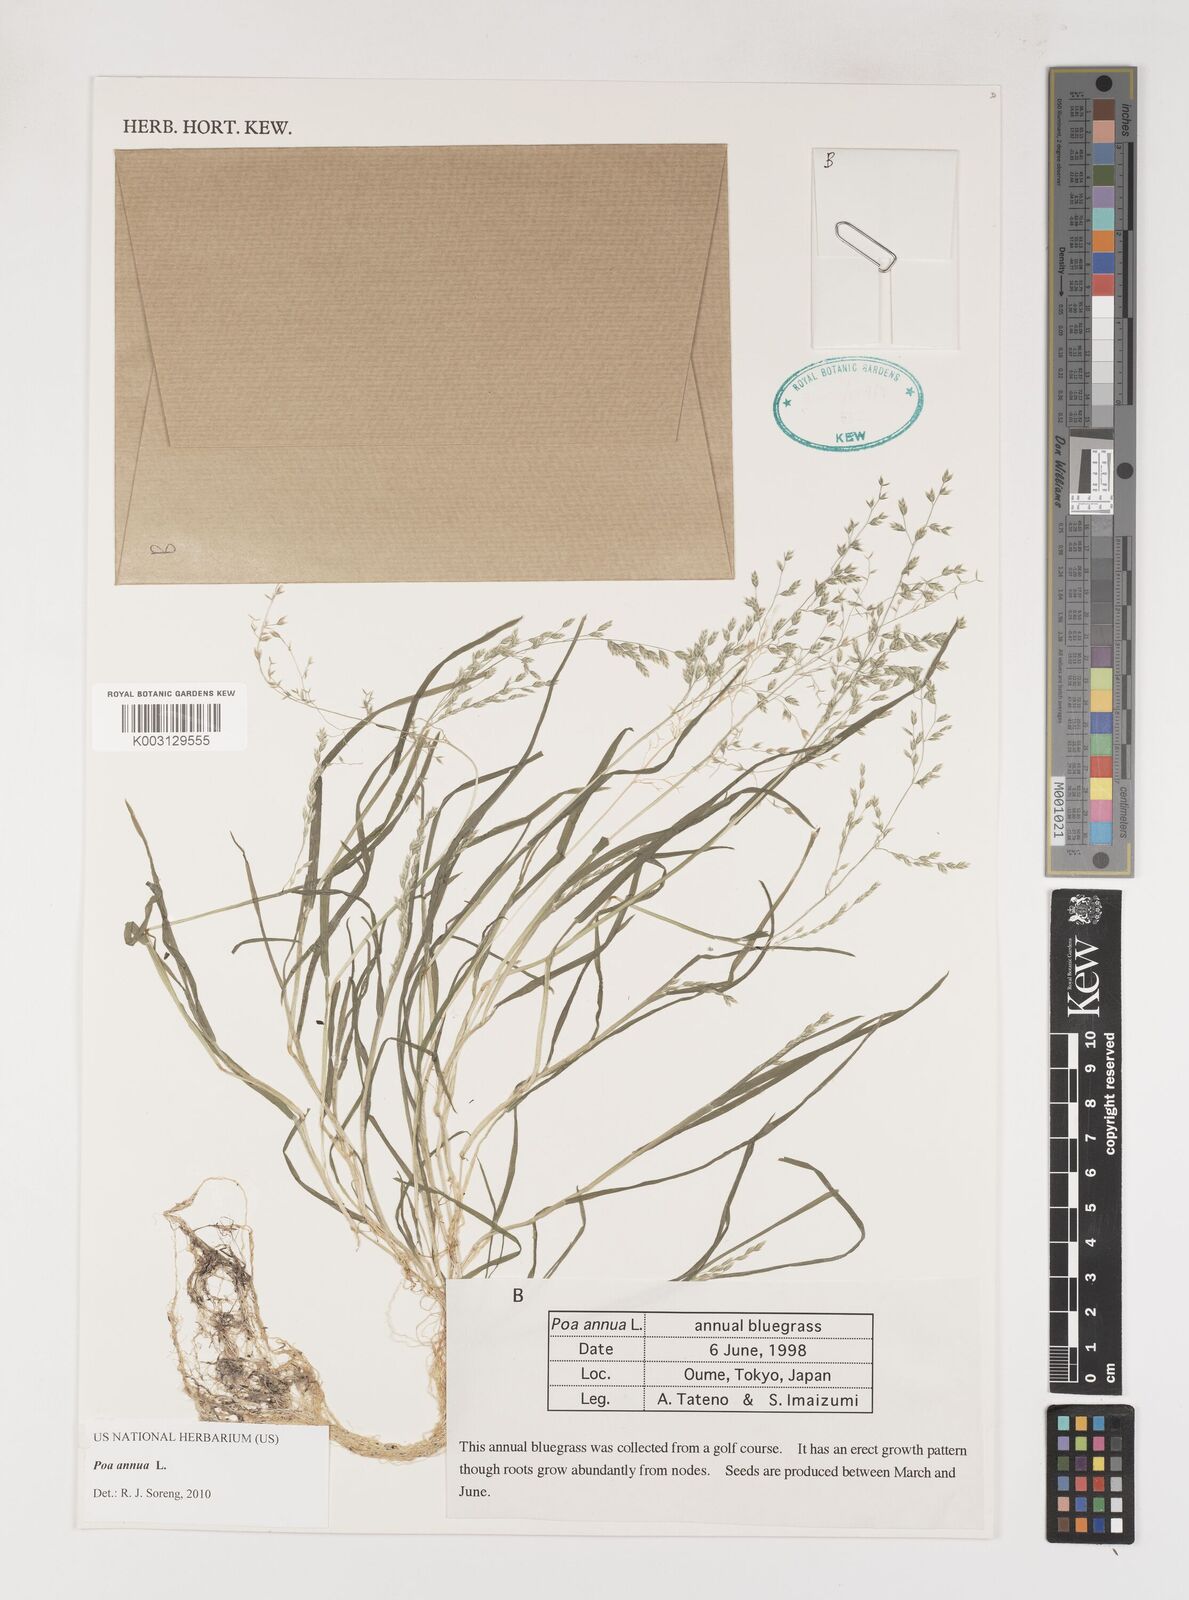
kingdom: Plantae
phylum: Tracheophyta
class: Liliopsida
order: Poales
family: Poaceae
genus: Poa
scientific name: Poa annua
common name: Annual bluegrass
